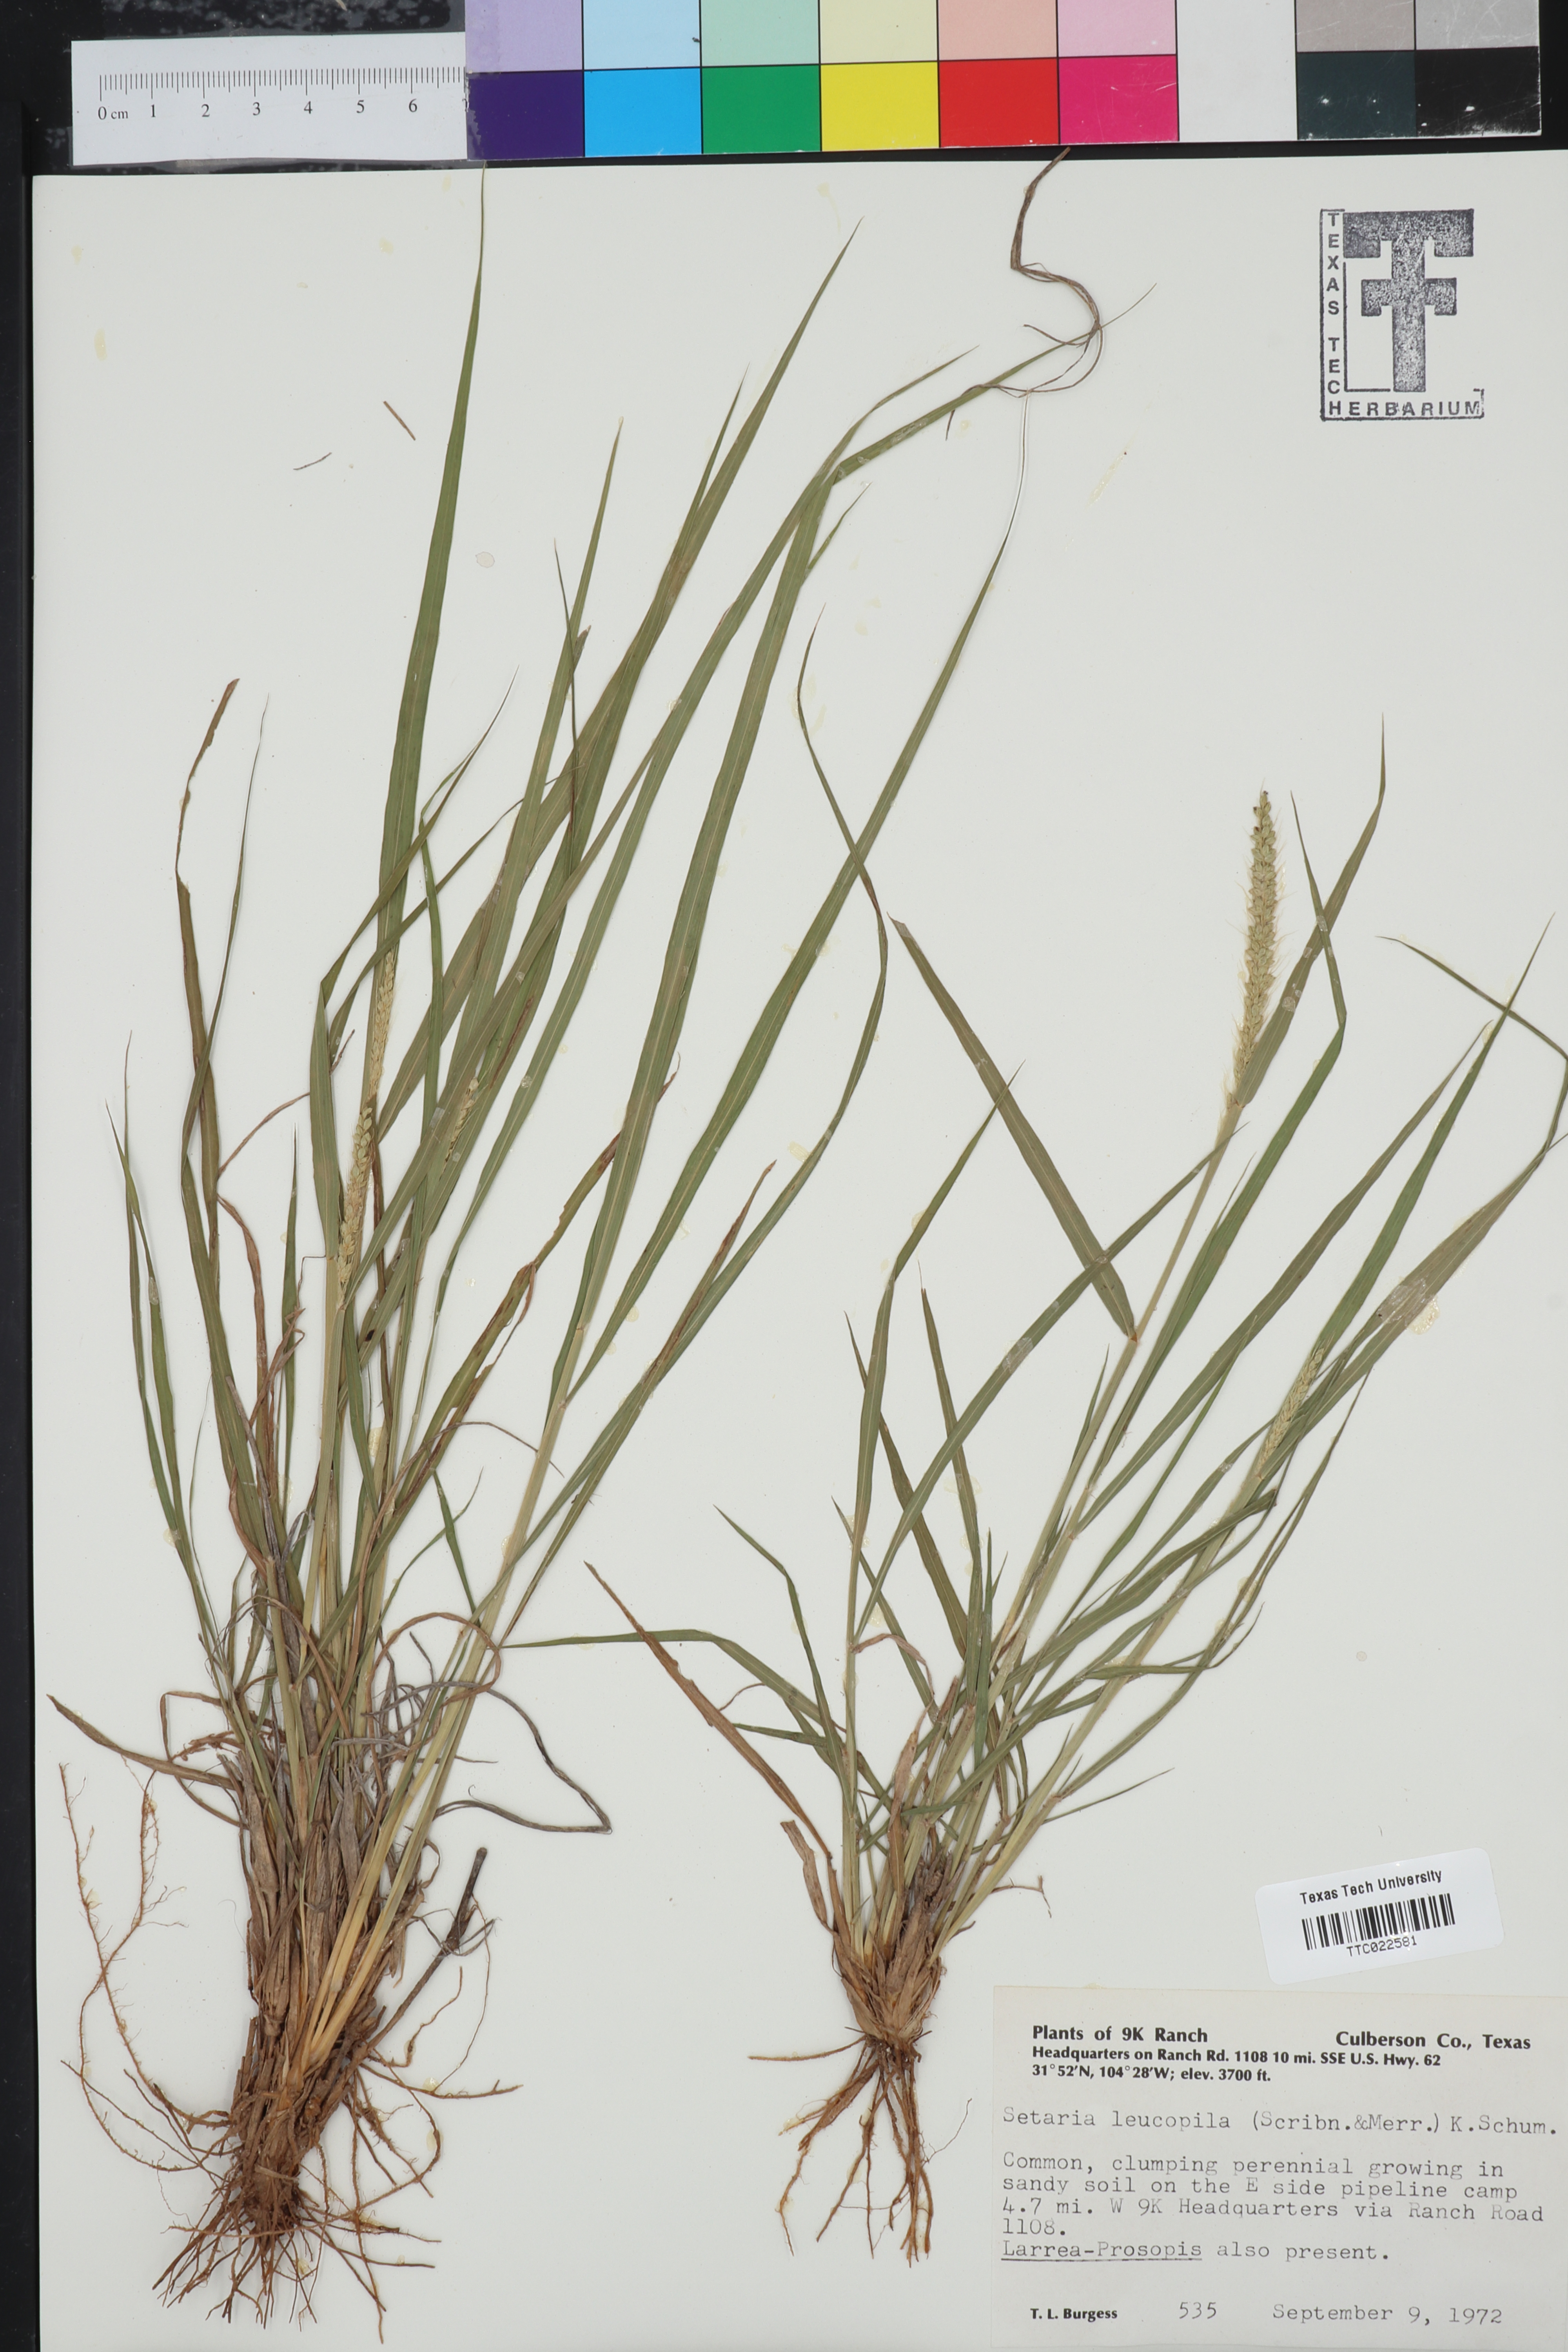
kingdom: Plantae
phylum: Tracheophyta
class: Magnoliopsida
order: Brassicales
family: Brassicaceae
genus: Physaria
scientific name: Physaria valida
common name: Strong bladderpod
